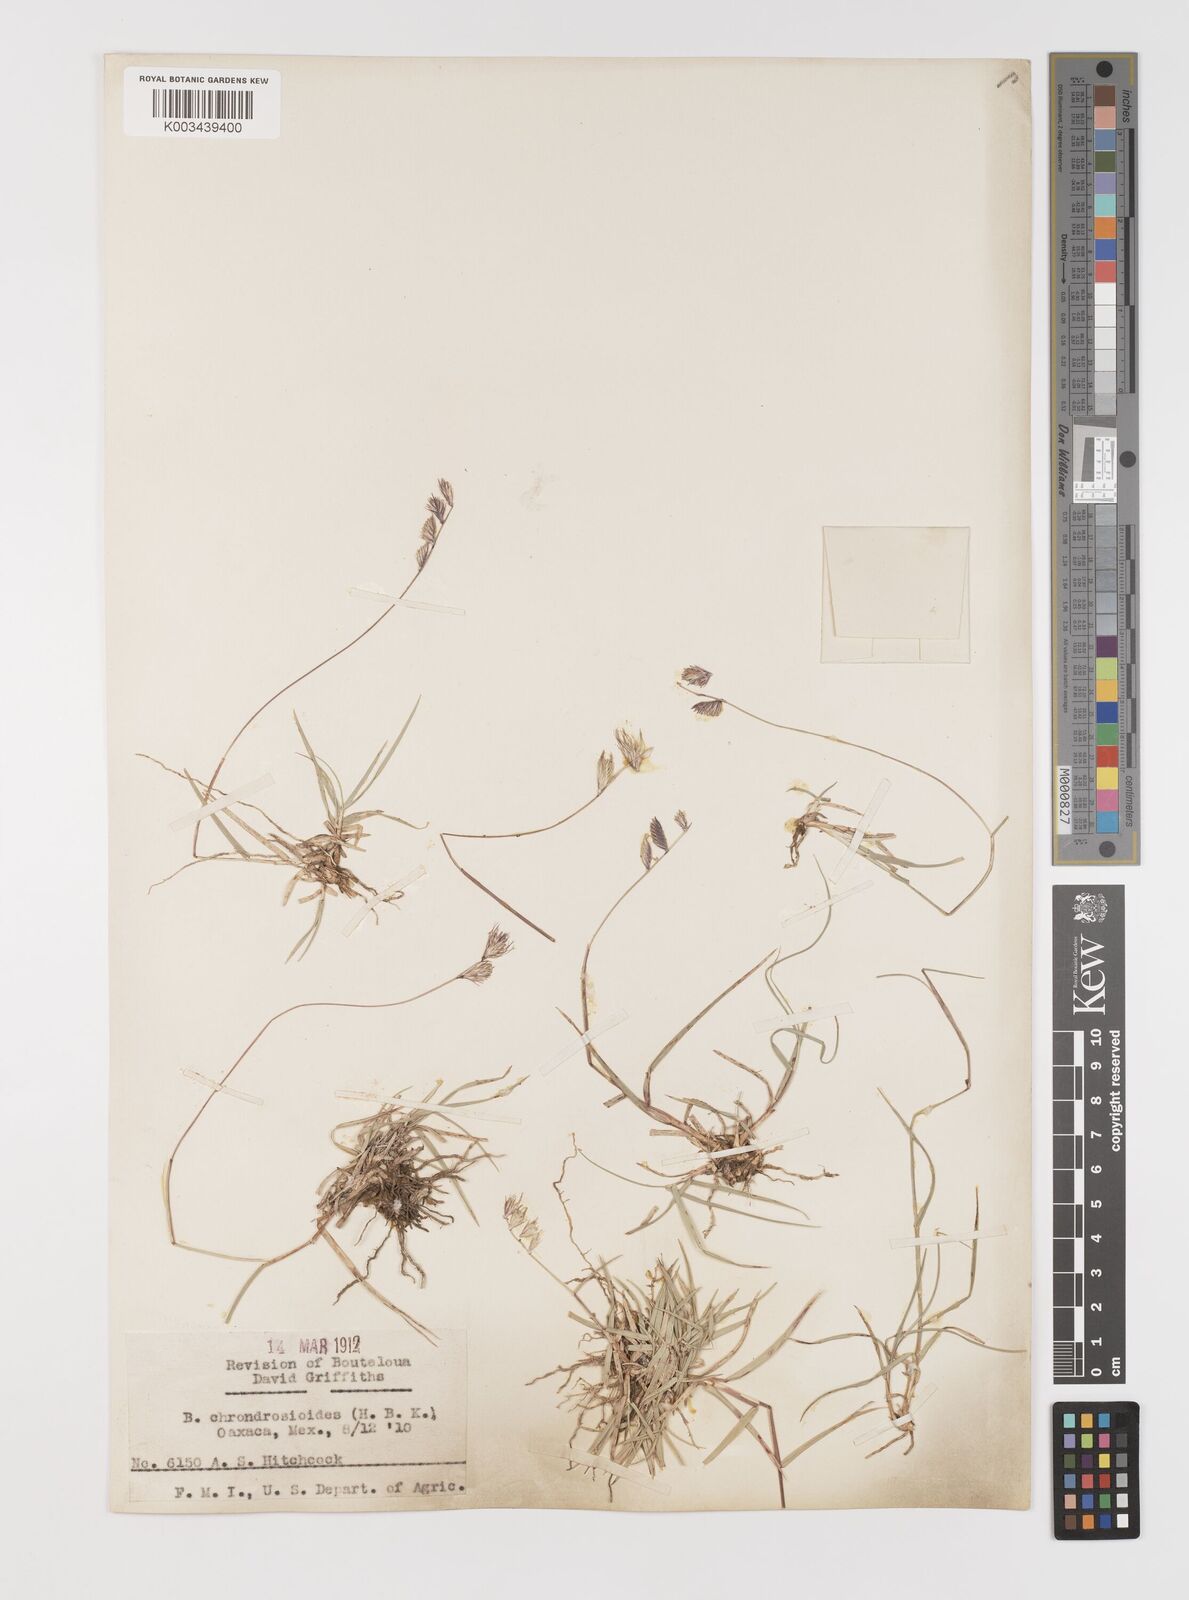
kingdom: Plantae
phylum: Tracheophyta
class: Liliopsida
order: Poales
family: Poaceae
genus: Bouteloua
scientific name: Bouteloua chondrosioides
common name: Sprucetop grama
